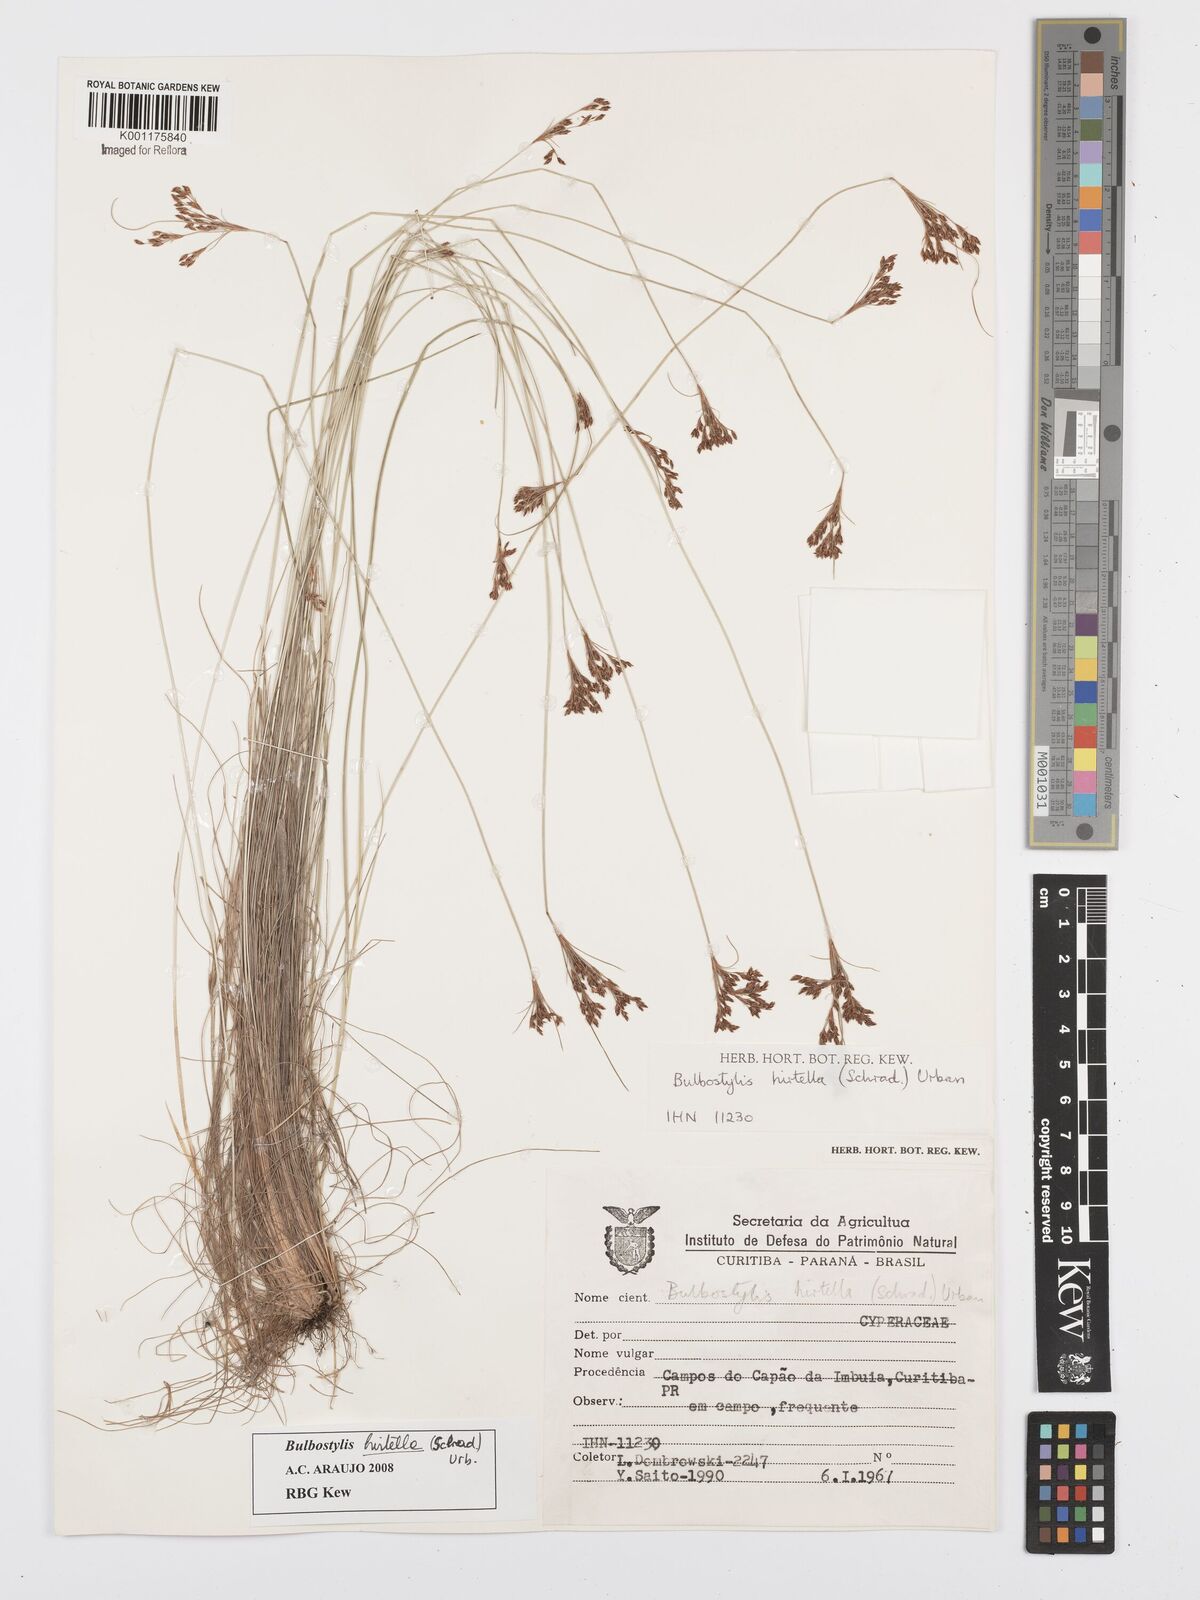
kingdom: Plantae
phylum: Tracheophyta
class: Liliopsida
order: Poales
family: Cyperaceae
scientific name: Cyperaceae
